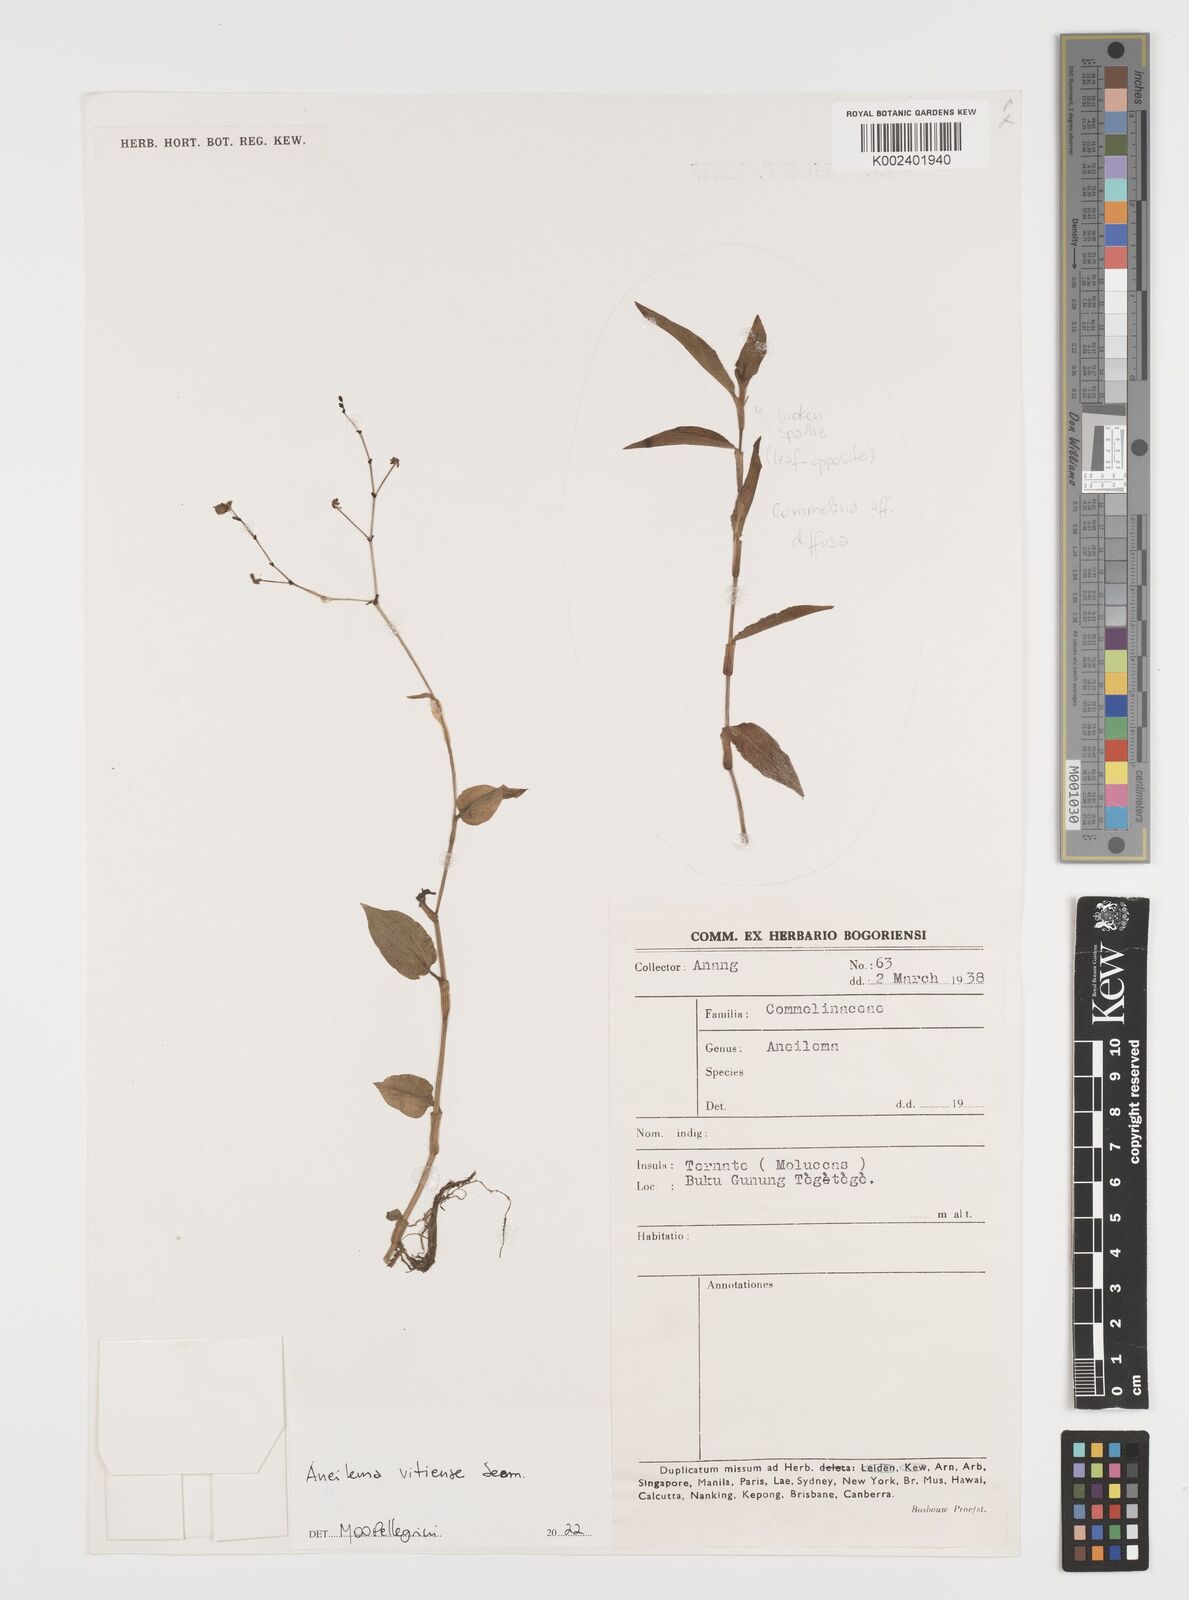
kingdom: Plantae
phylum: Tracheophyta
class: Liliopsida
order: Commelinales
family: Commelinaceae
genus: Rhopalephora
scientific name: Rhopalephora vitiensis
